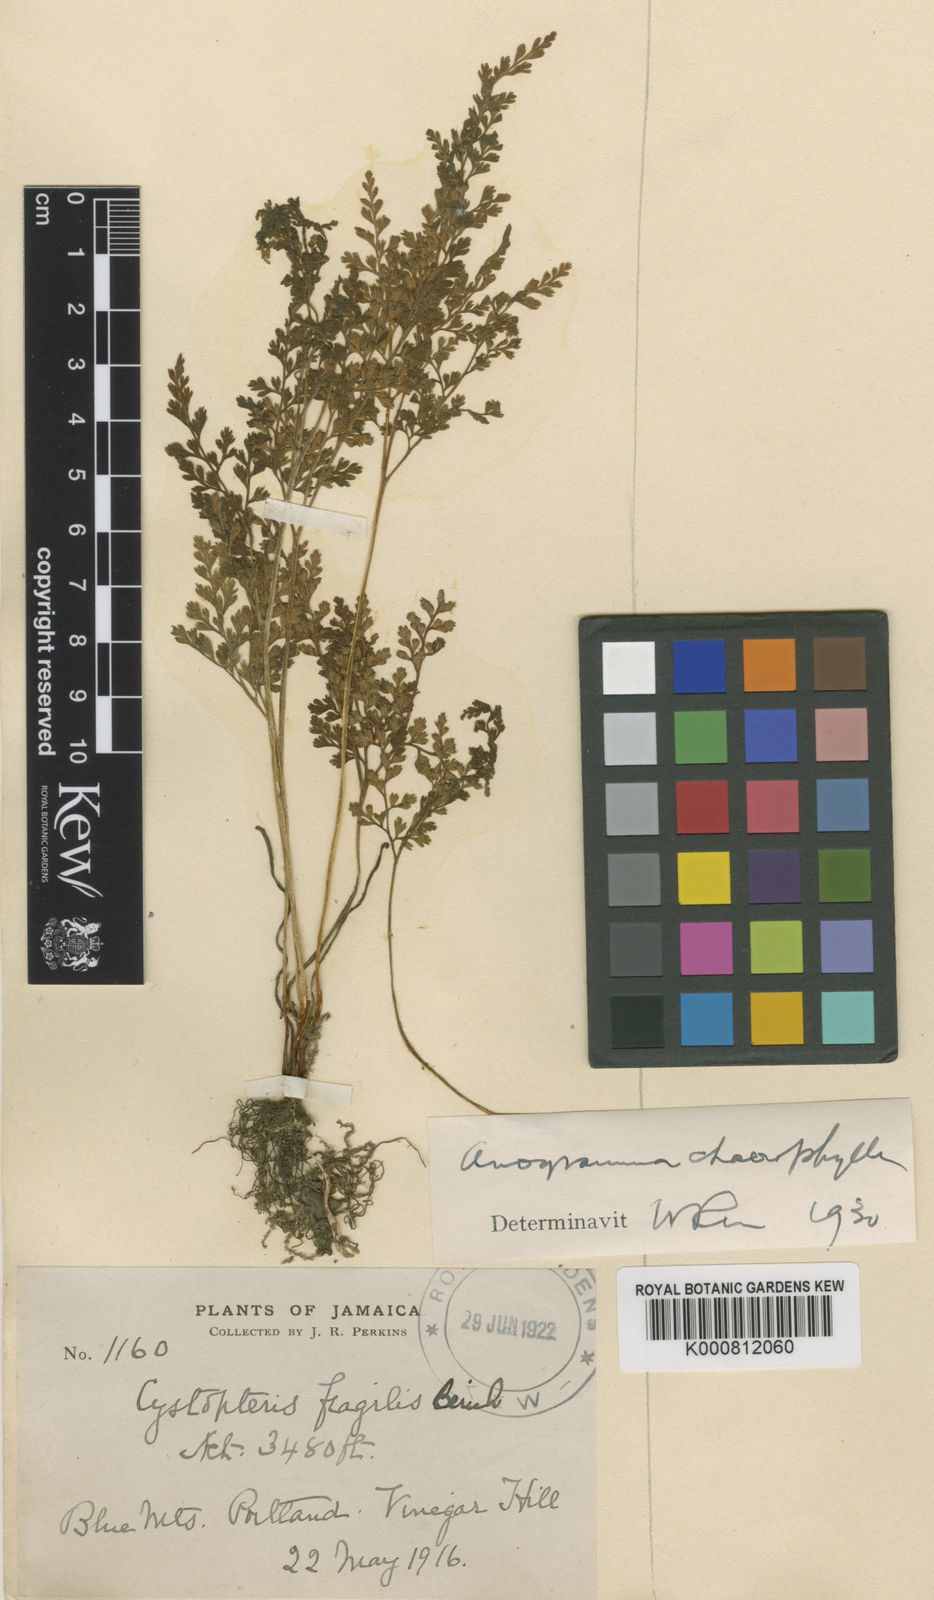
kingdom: Plantae
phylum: Tracheophyta
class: Polypodiopsida
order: Polypodiales
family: Pteridaceae
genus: Gastoniella
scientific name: Gastoniella chaerophylla
